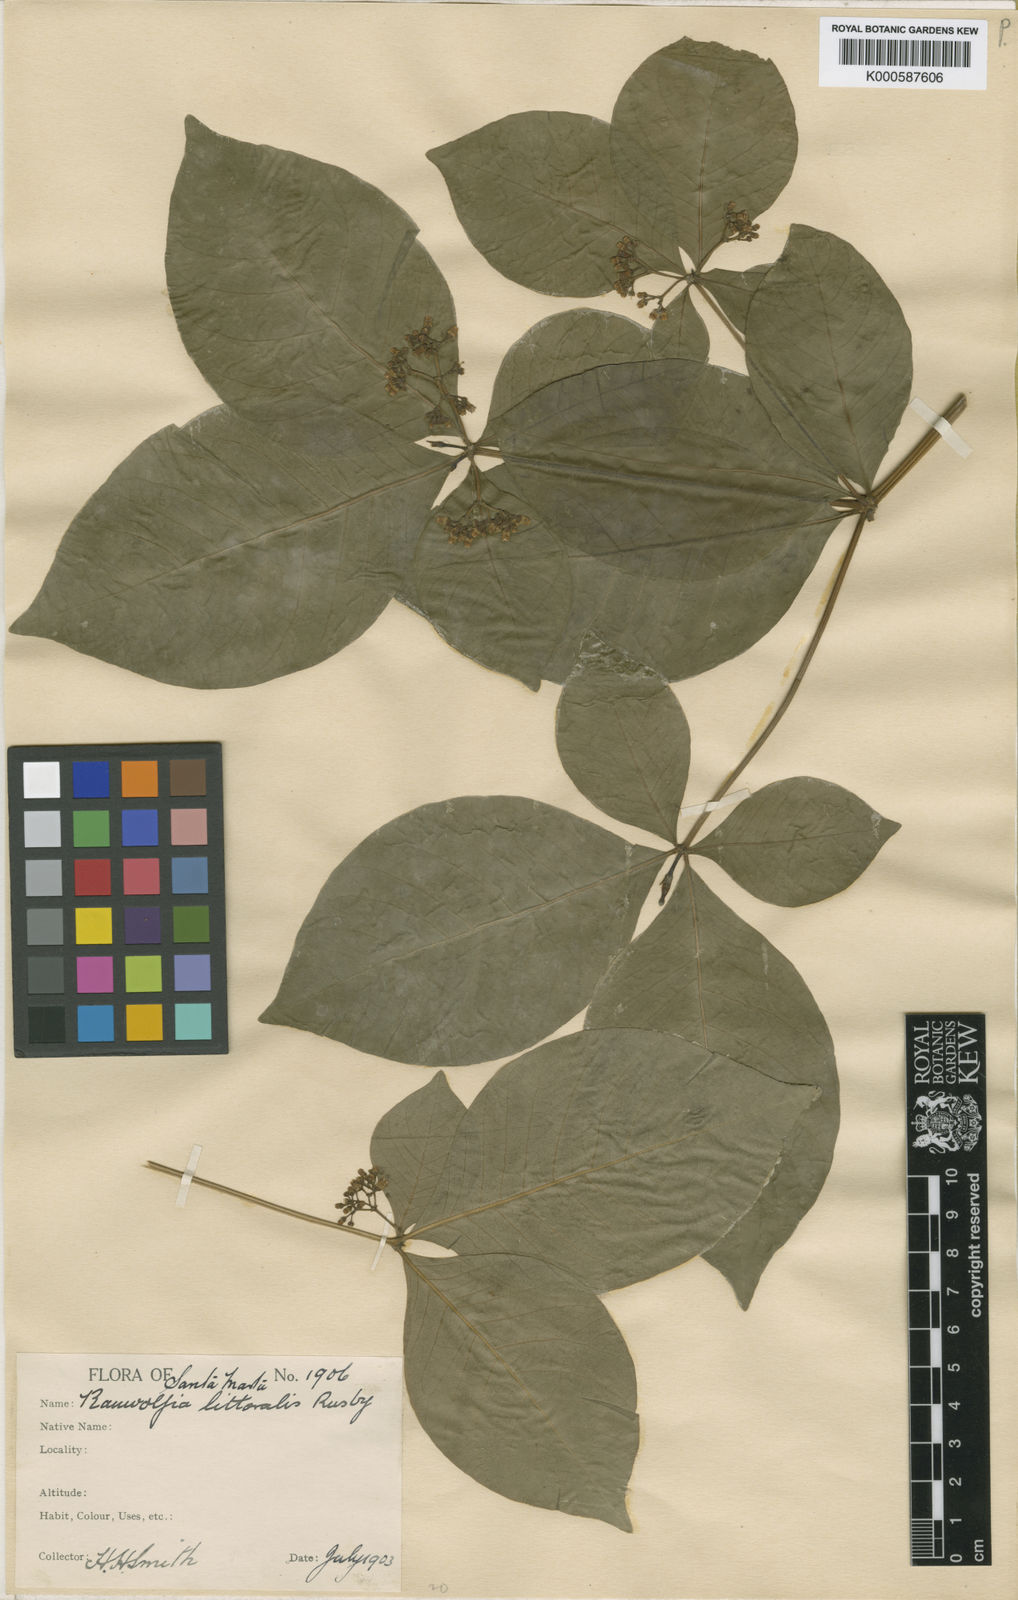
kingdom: Plantae
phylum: Tracheophyta
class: Magnoliopsida
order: Gentianales
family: Apocynaceae
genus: Rauvolfia
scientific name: Rauvolfia littoralis
